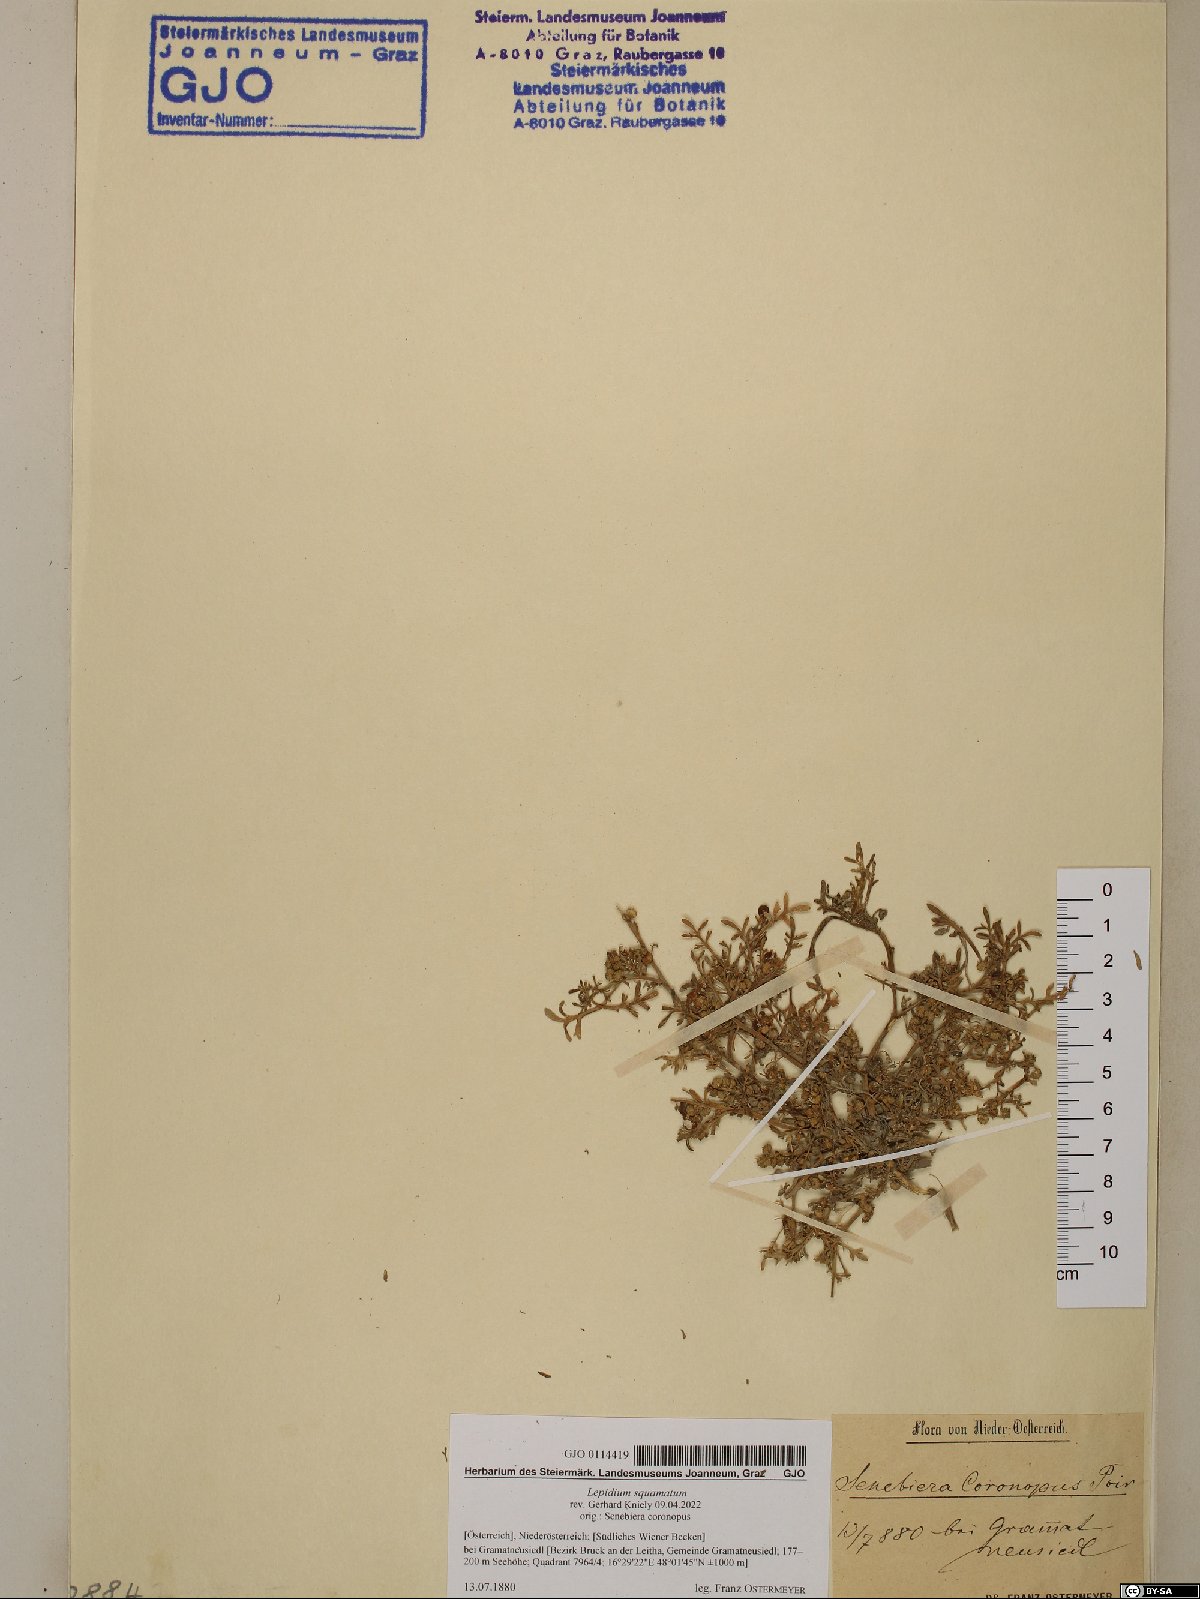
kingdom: Plantae
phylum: Tracheophyta
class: Magnoliopsida
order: Brassicales
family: Brassicaceae
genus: Lepidium
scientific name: Lepidium coronopus
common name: Greater swinecress
